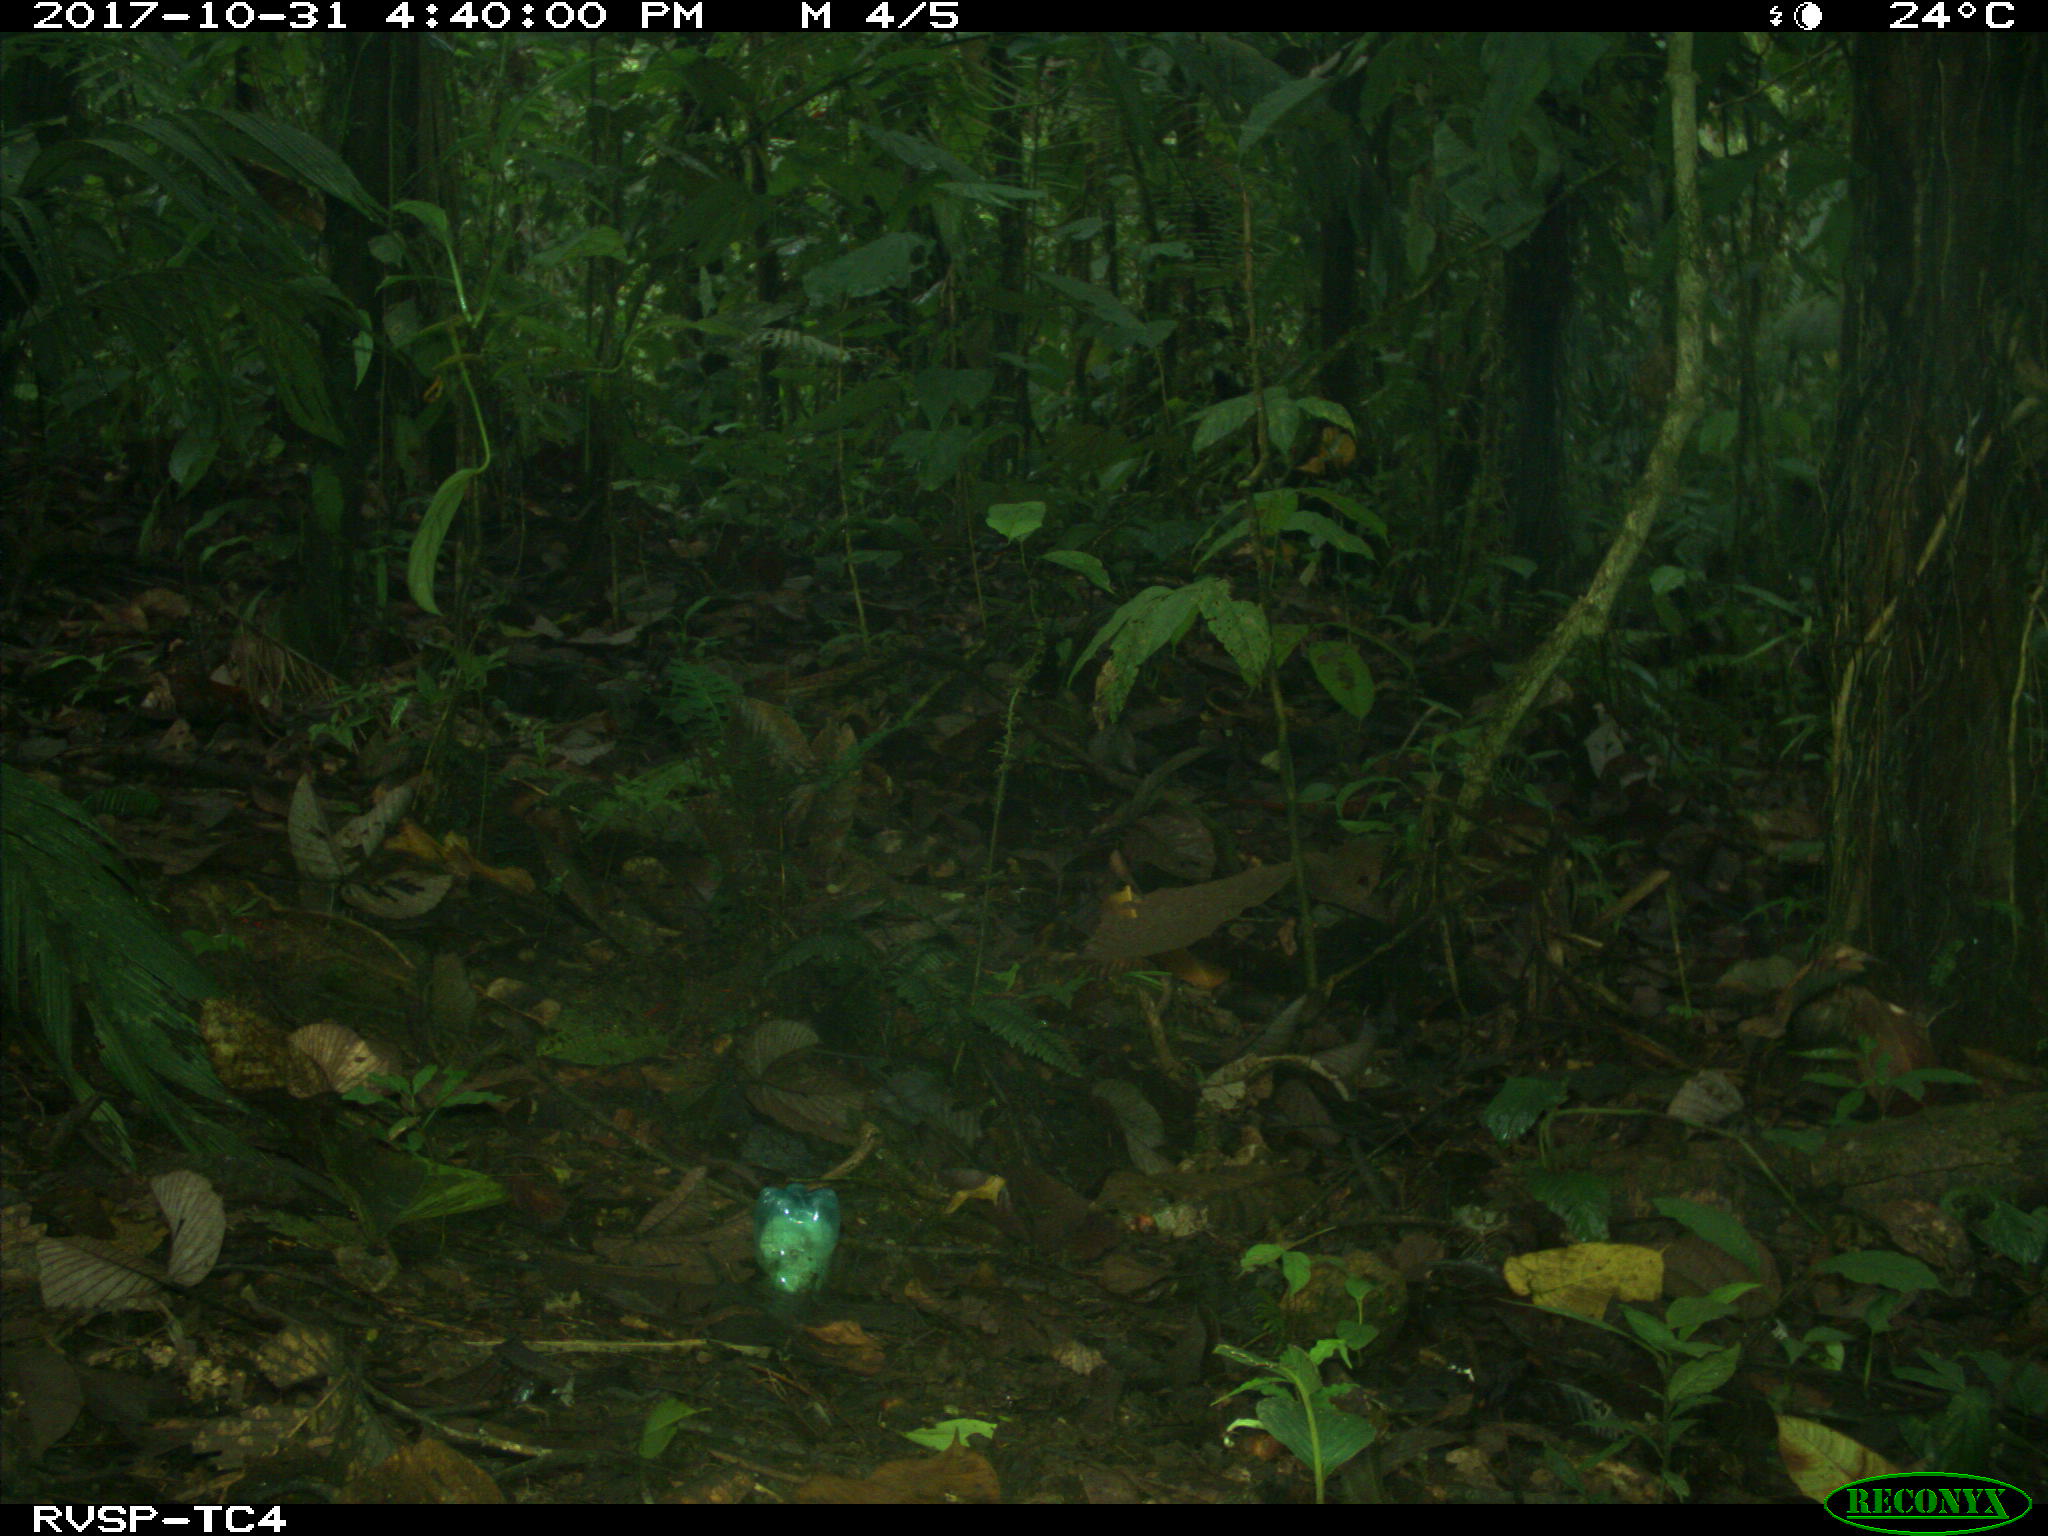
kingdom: Animalia
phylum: Chordata
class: Mammalia
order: Rodentia
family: Dasyproctidae
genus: Dasyprocta
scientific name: Dasyprocta punctata
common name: Central american agouti
